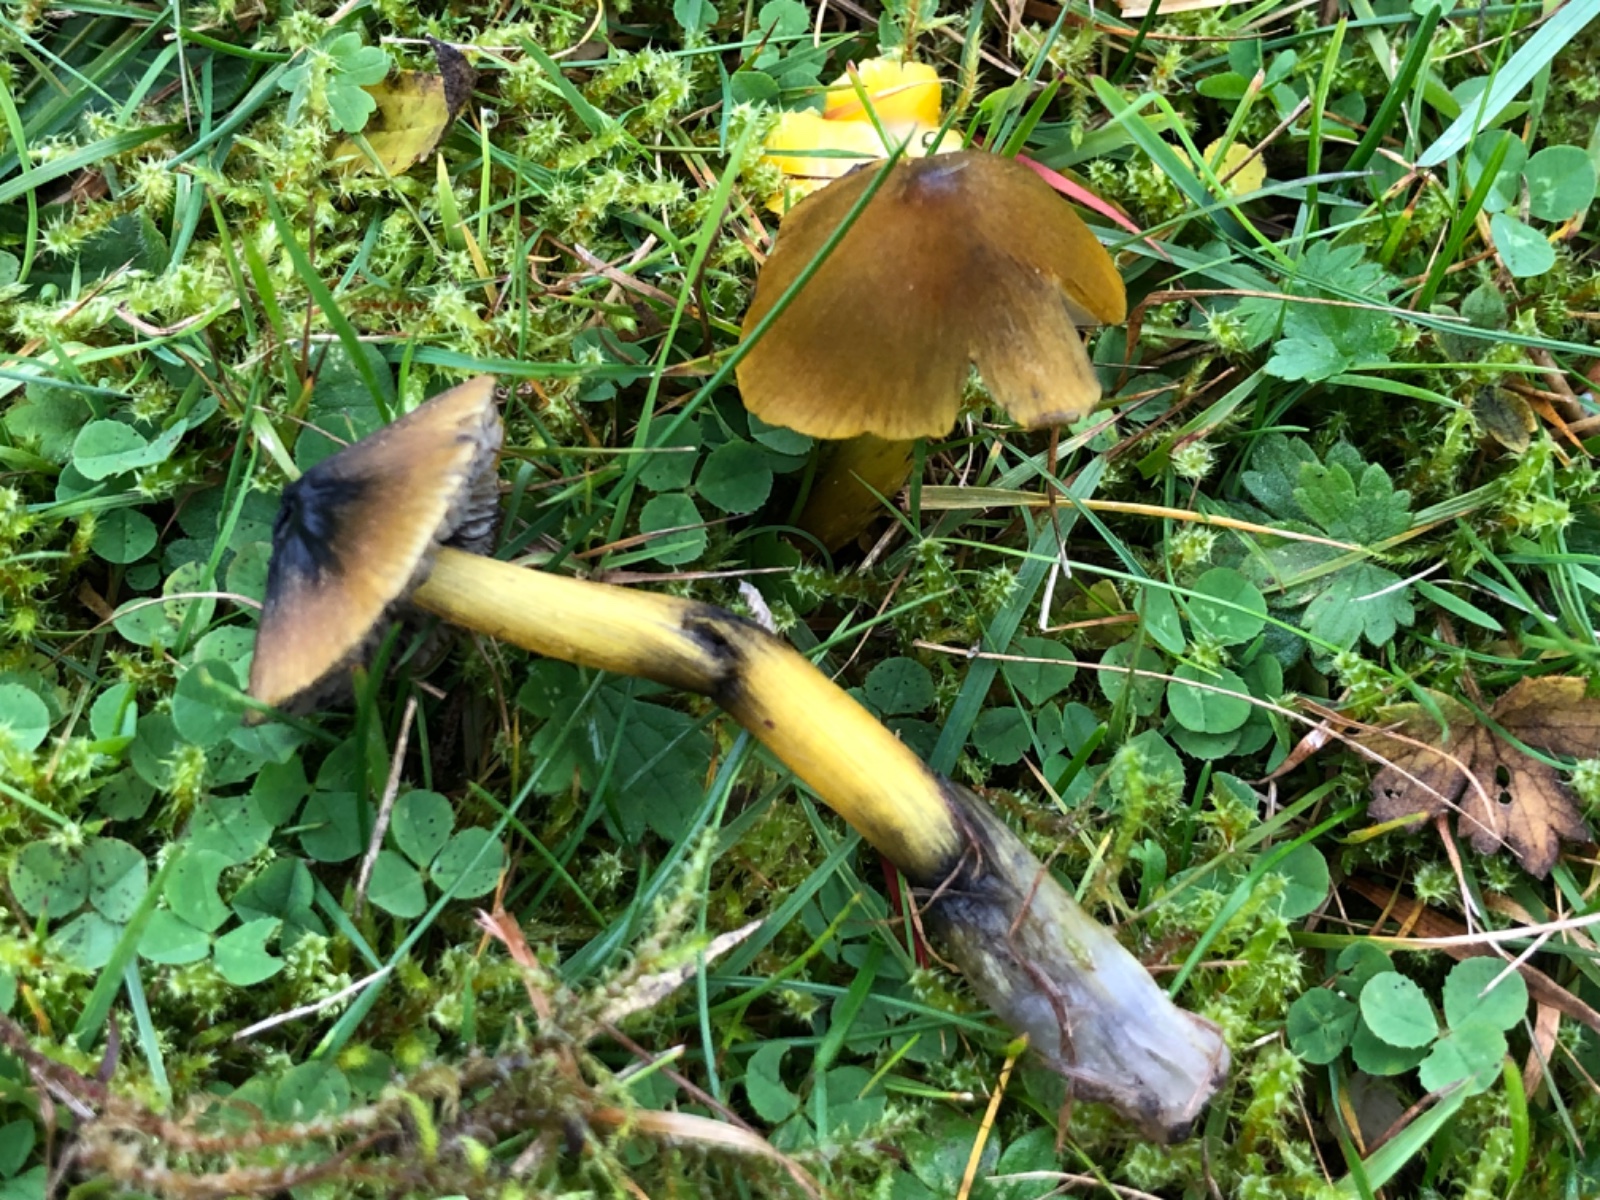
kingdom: Fungi
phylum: Basidiomycota
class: Agaricomycetes
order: Agaricales
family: Hygrophoraceae
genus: Hygrocybe
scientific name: Hygrocybe conica
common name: Blackening wax-cap
